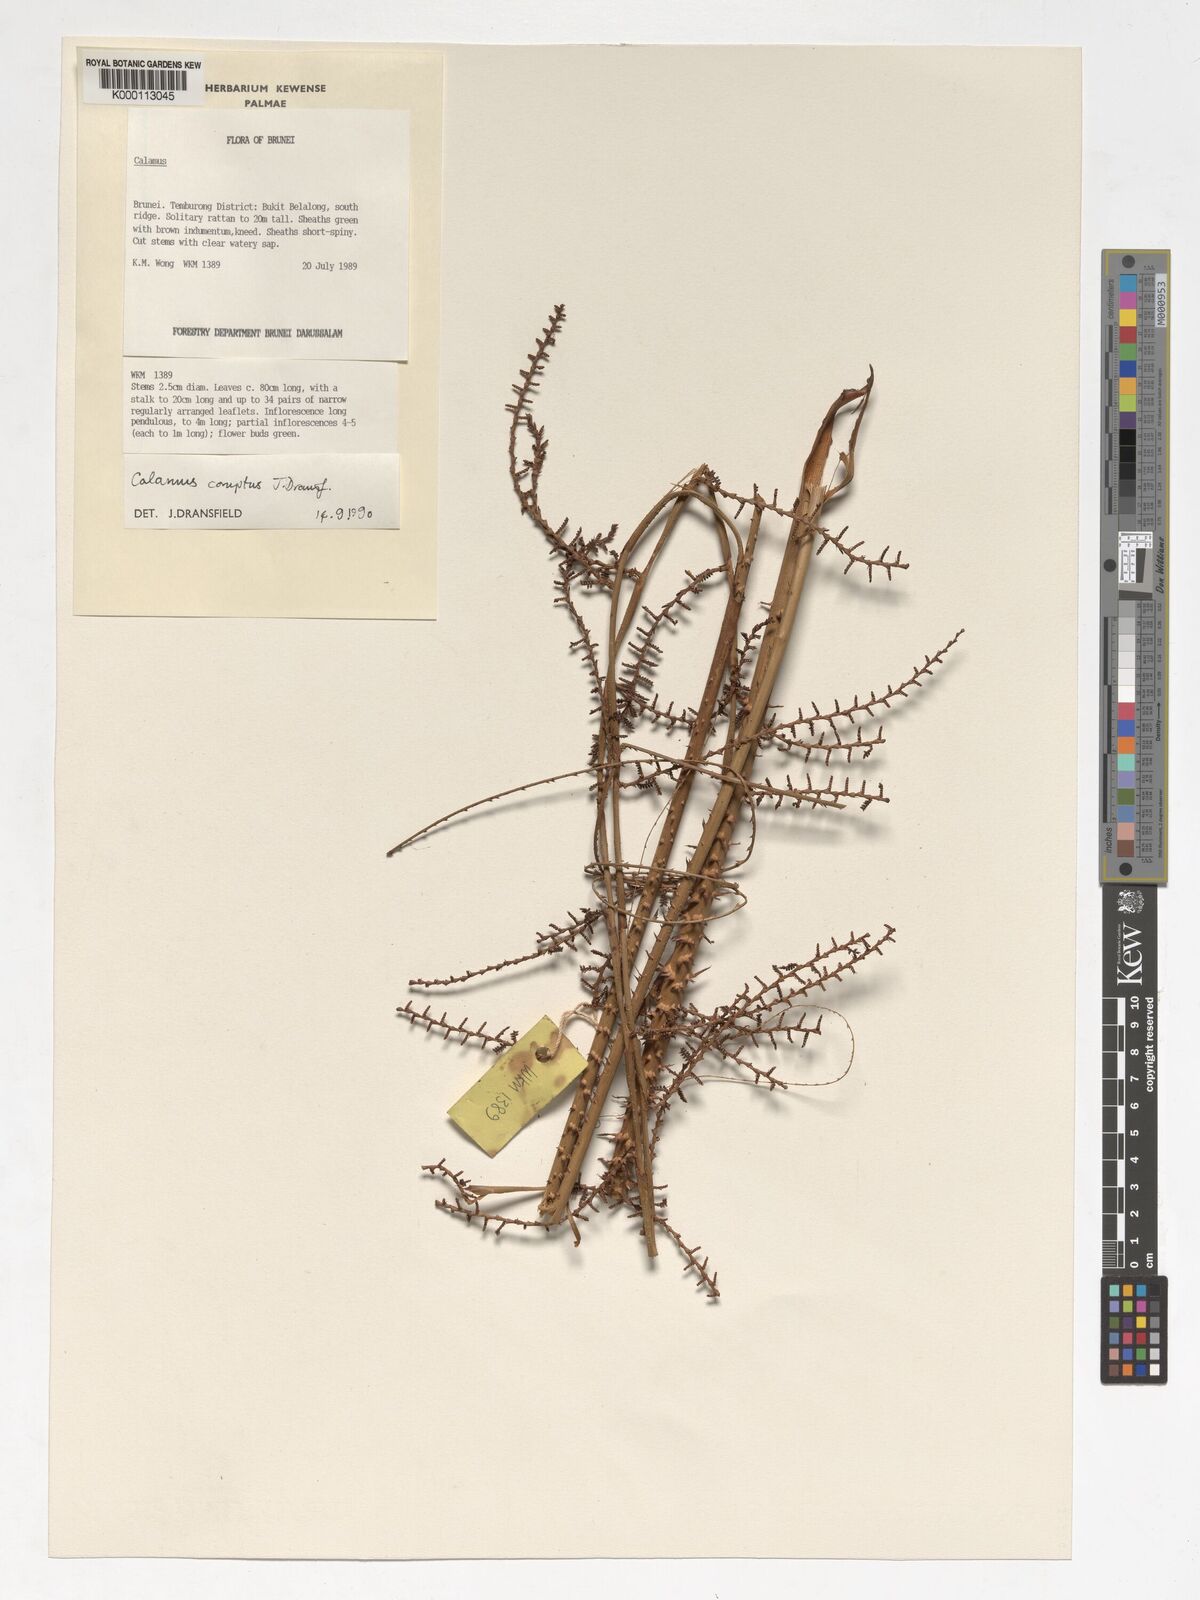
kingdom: Plantae
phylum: Tracheophyta
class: Liliopsida
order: Arecales
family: Arecaceae
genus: Calamus
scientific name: Calamus comptus
